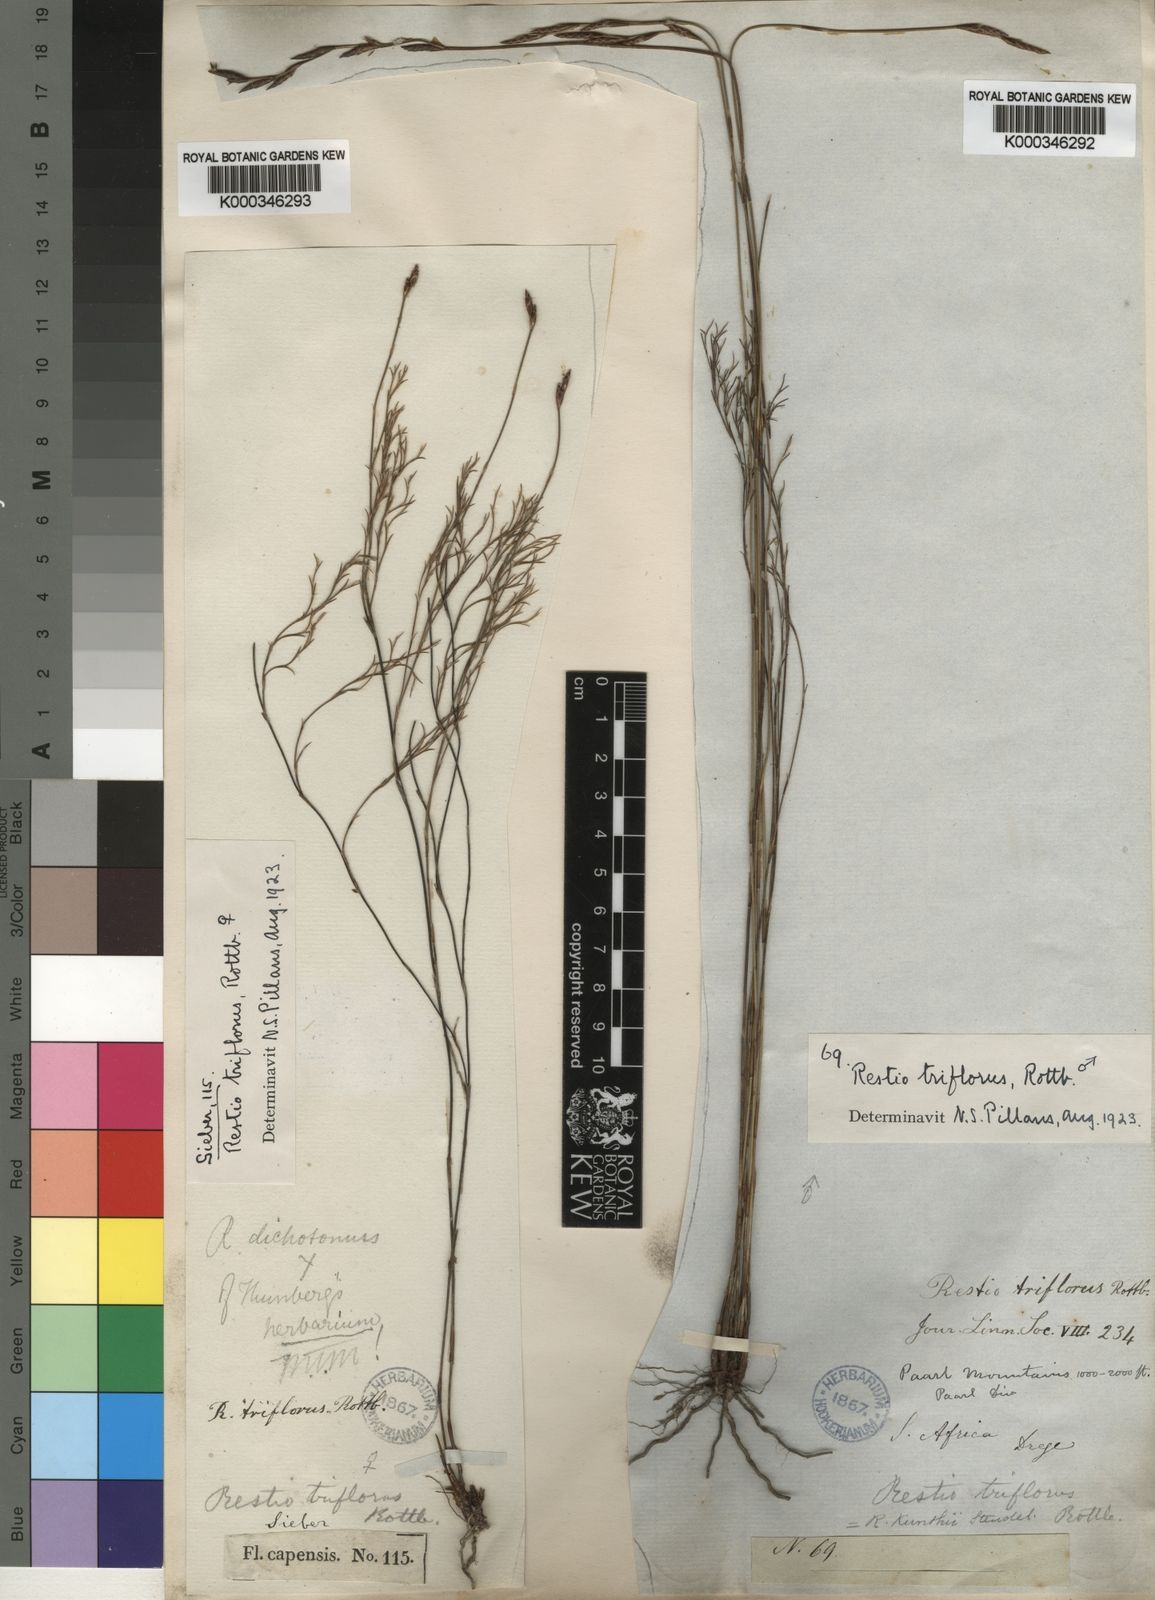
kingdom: Plantae
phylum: Tracheophyta
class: Liliopsida
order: Poales
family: Restionaceae
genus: Restio
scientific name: Restio triflorus
